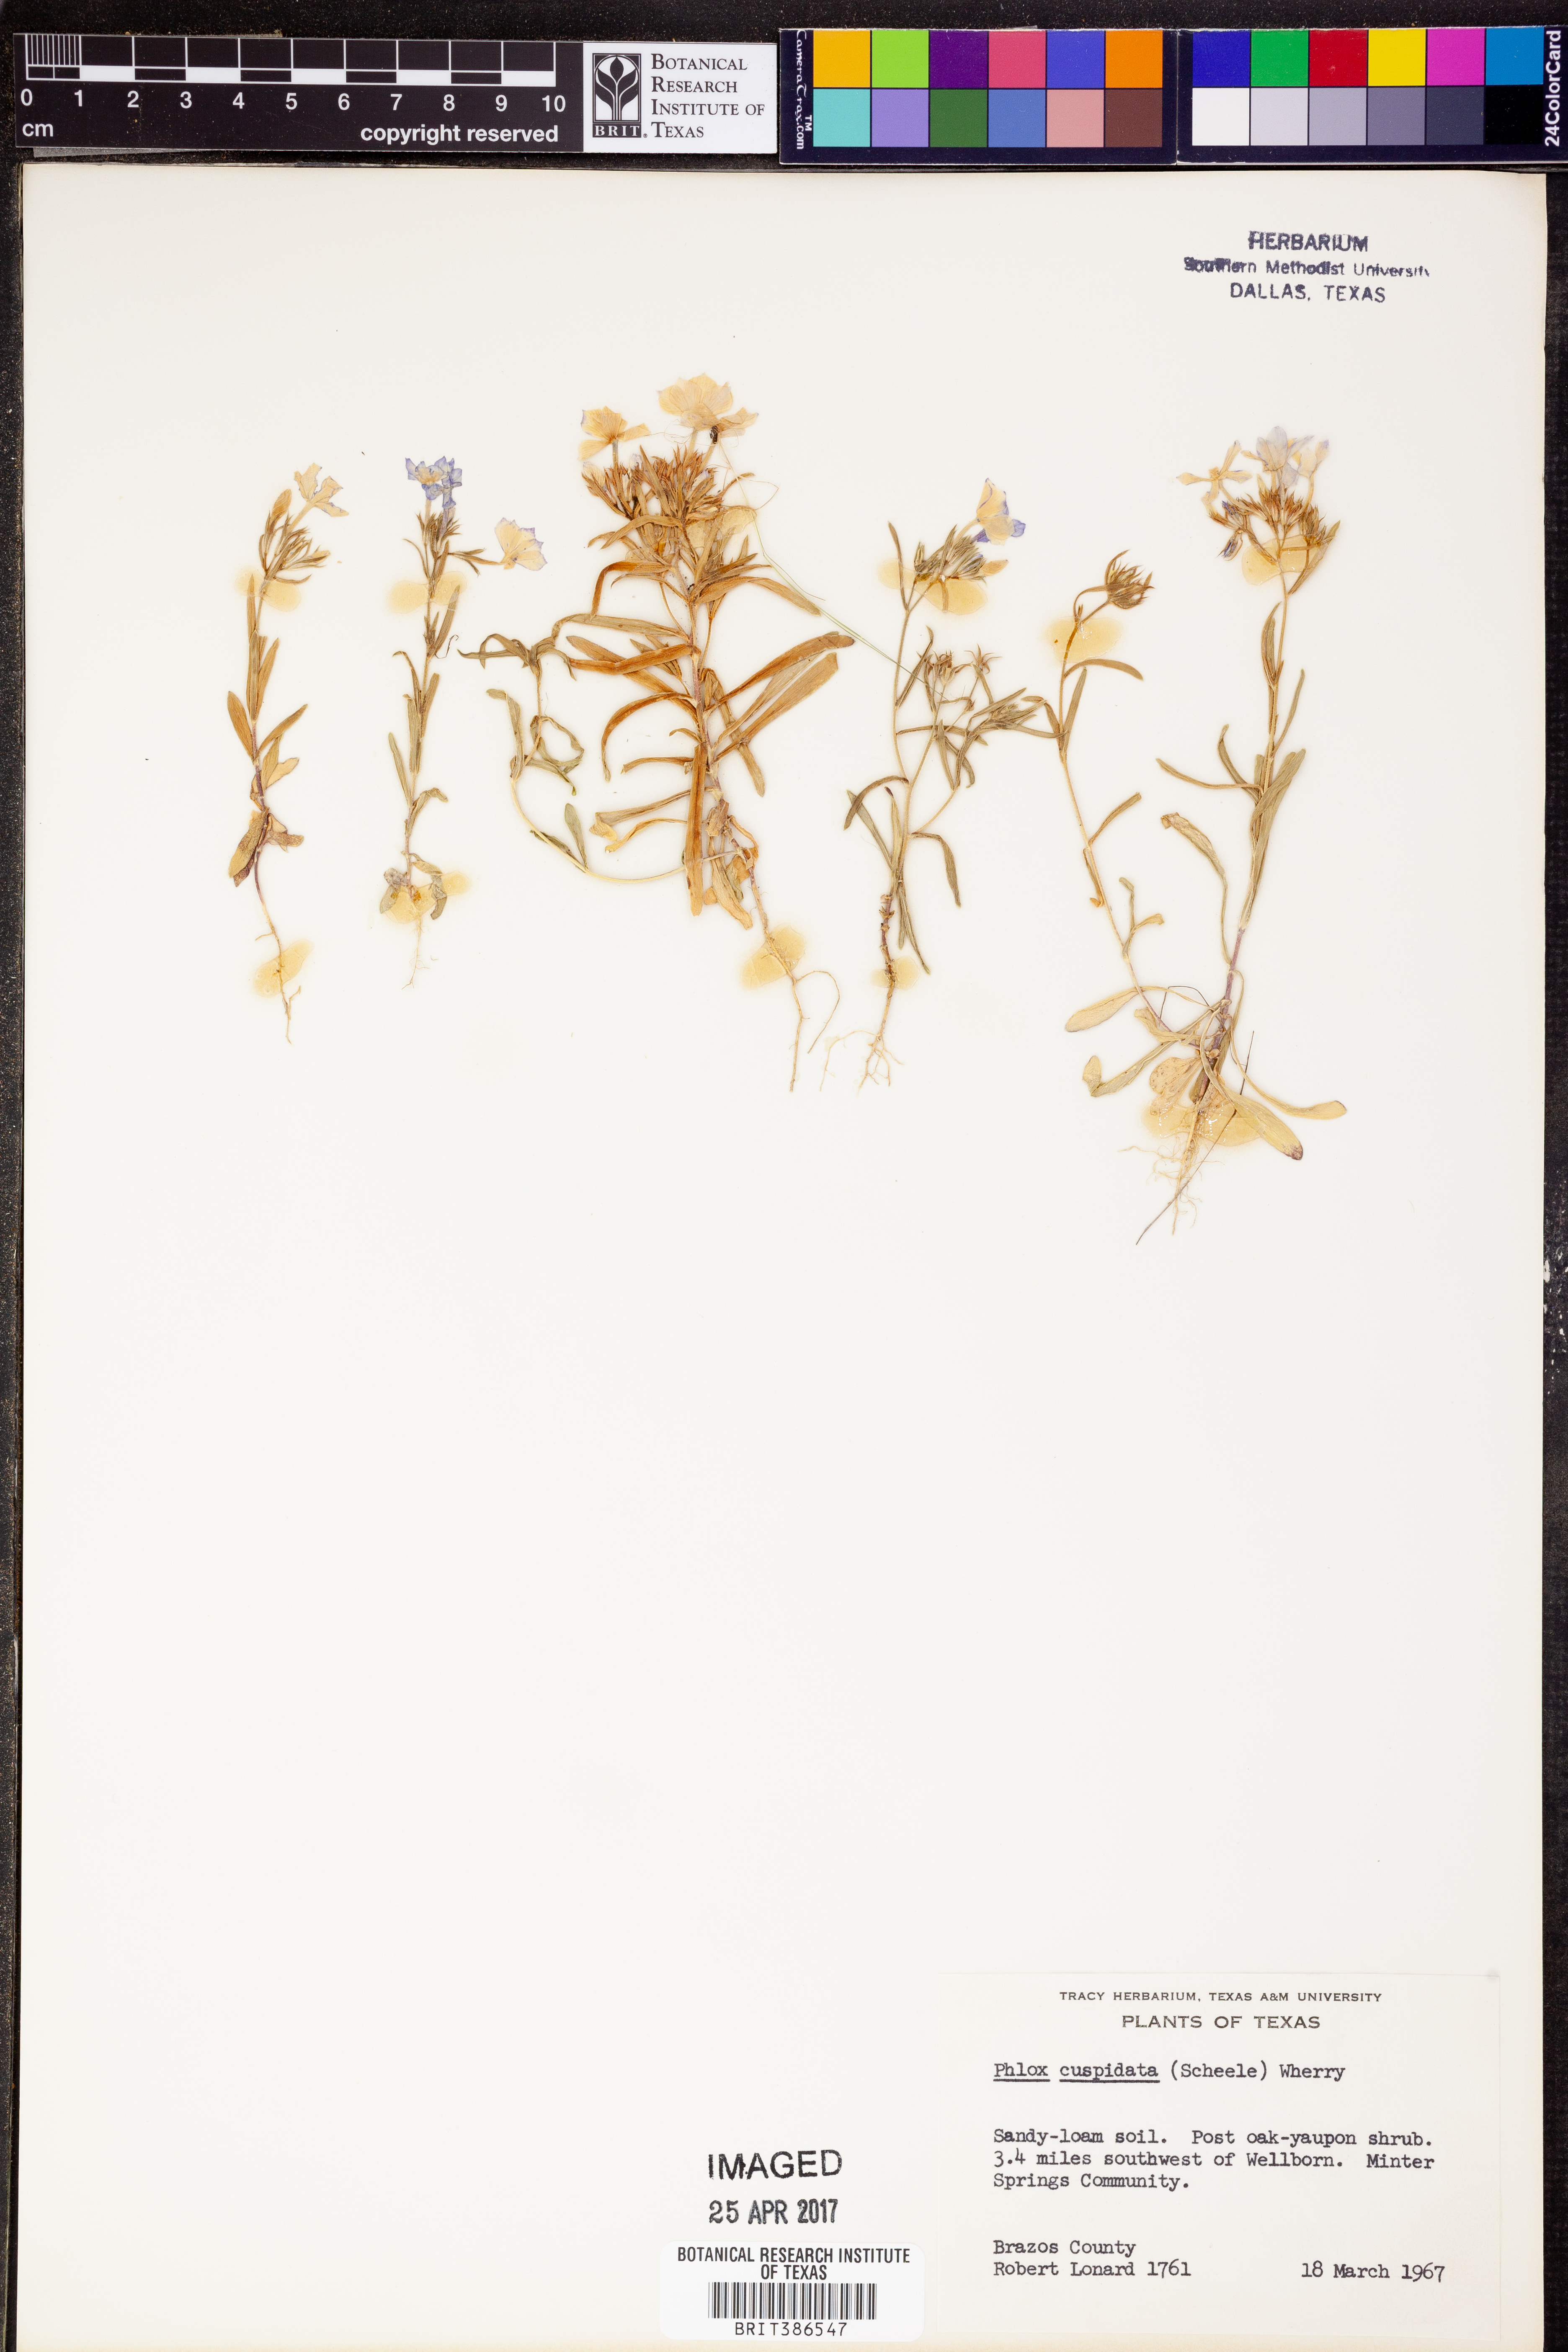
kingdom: Plantae
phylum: Tracheophyta
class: Magnoliopsida
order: Ericales
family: Polemoniaceae
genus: Phlox
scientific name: Phlox cuspidata
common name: Pointed phlox
